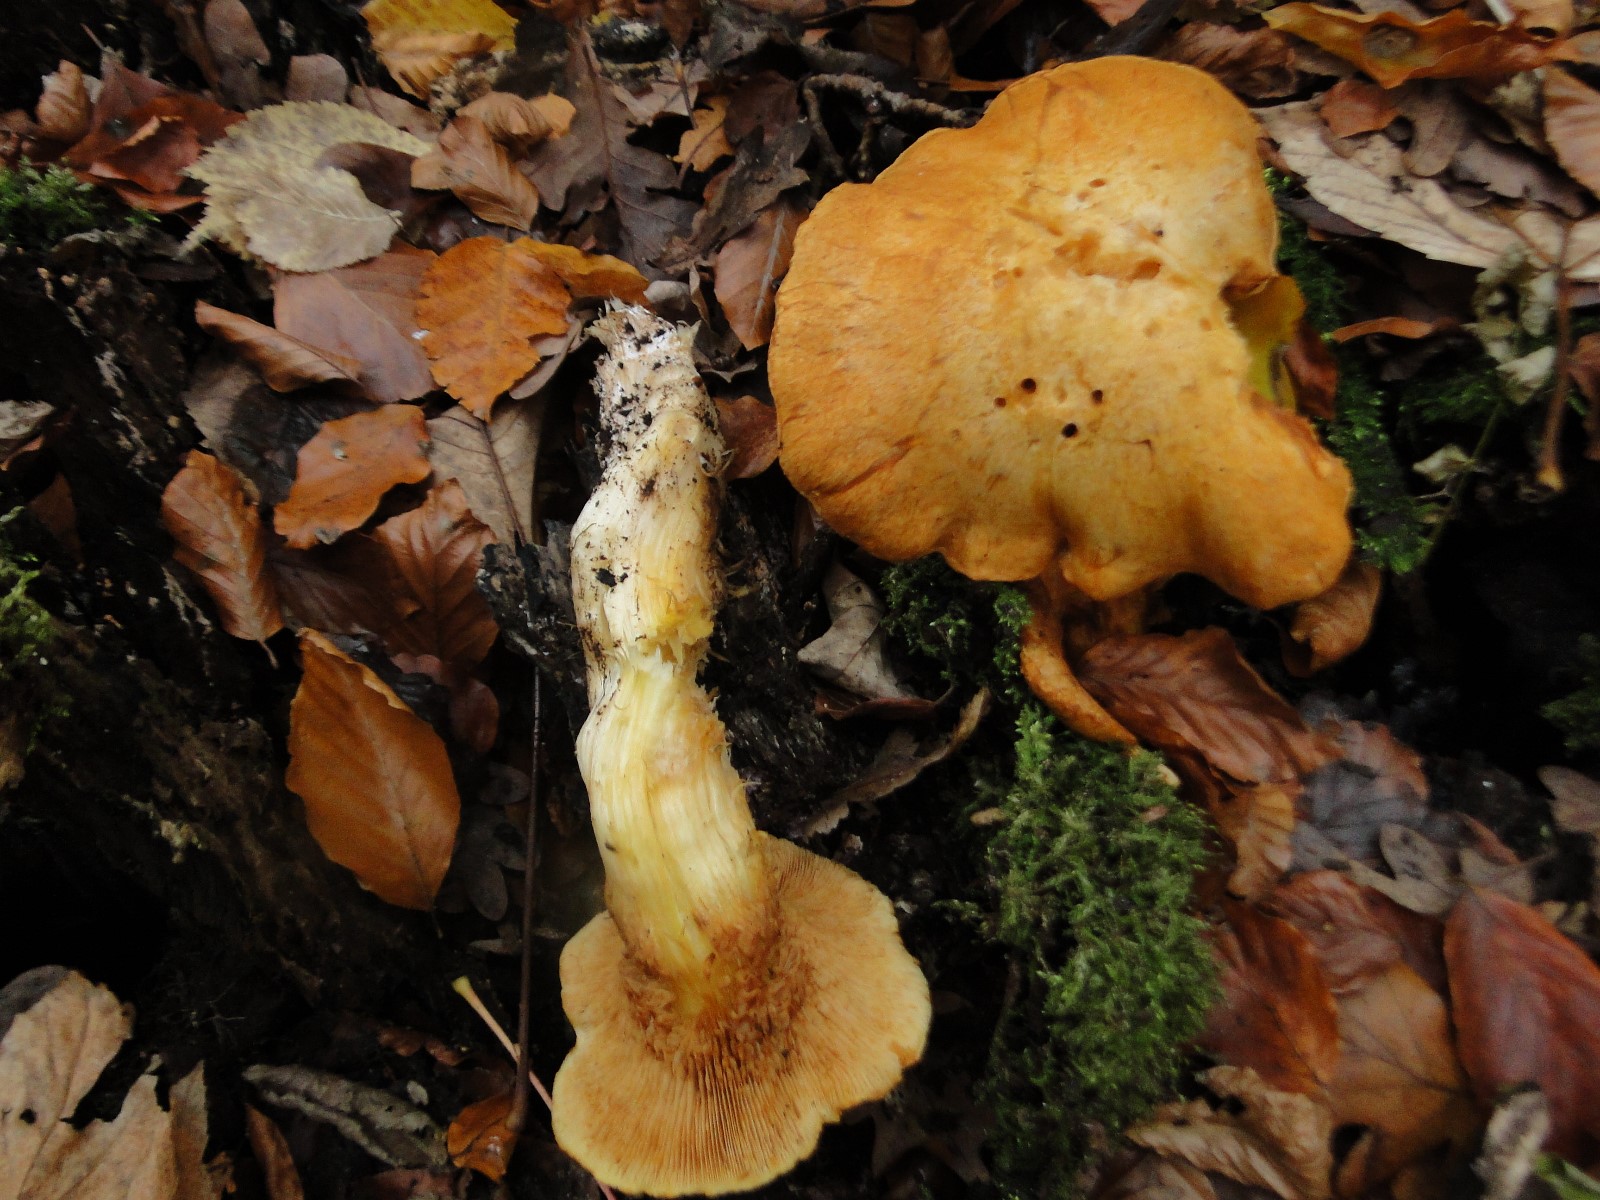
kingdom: Fungi
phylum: Basidiomycota
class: Agaricomycetes
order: Agaricales
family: Hymenogastraceae
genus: Gymnopilus
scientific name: Gymnopilus penetrans
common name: plettet flammehat
